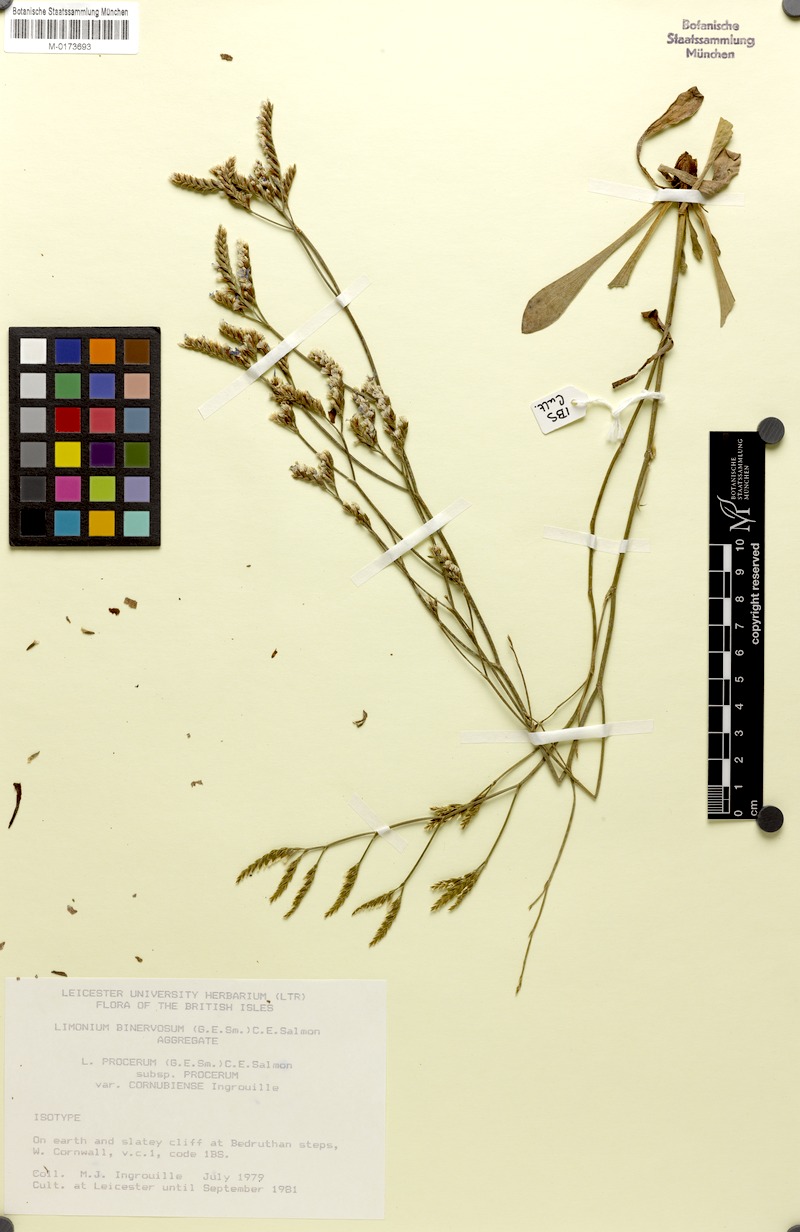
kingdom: Plantae
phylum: Tracheophyta
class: Magnoliopsida
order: Caryophyllales
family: Plumbaginaceae
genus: Limonium
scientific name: Limonium procerum
